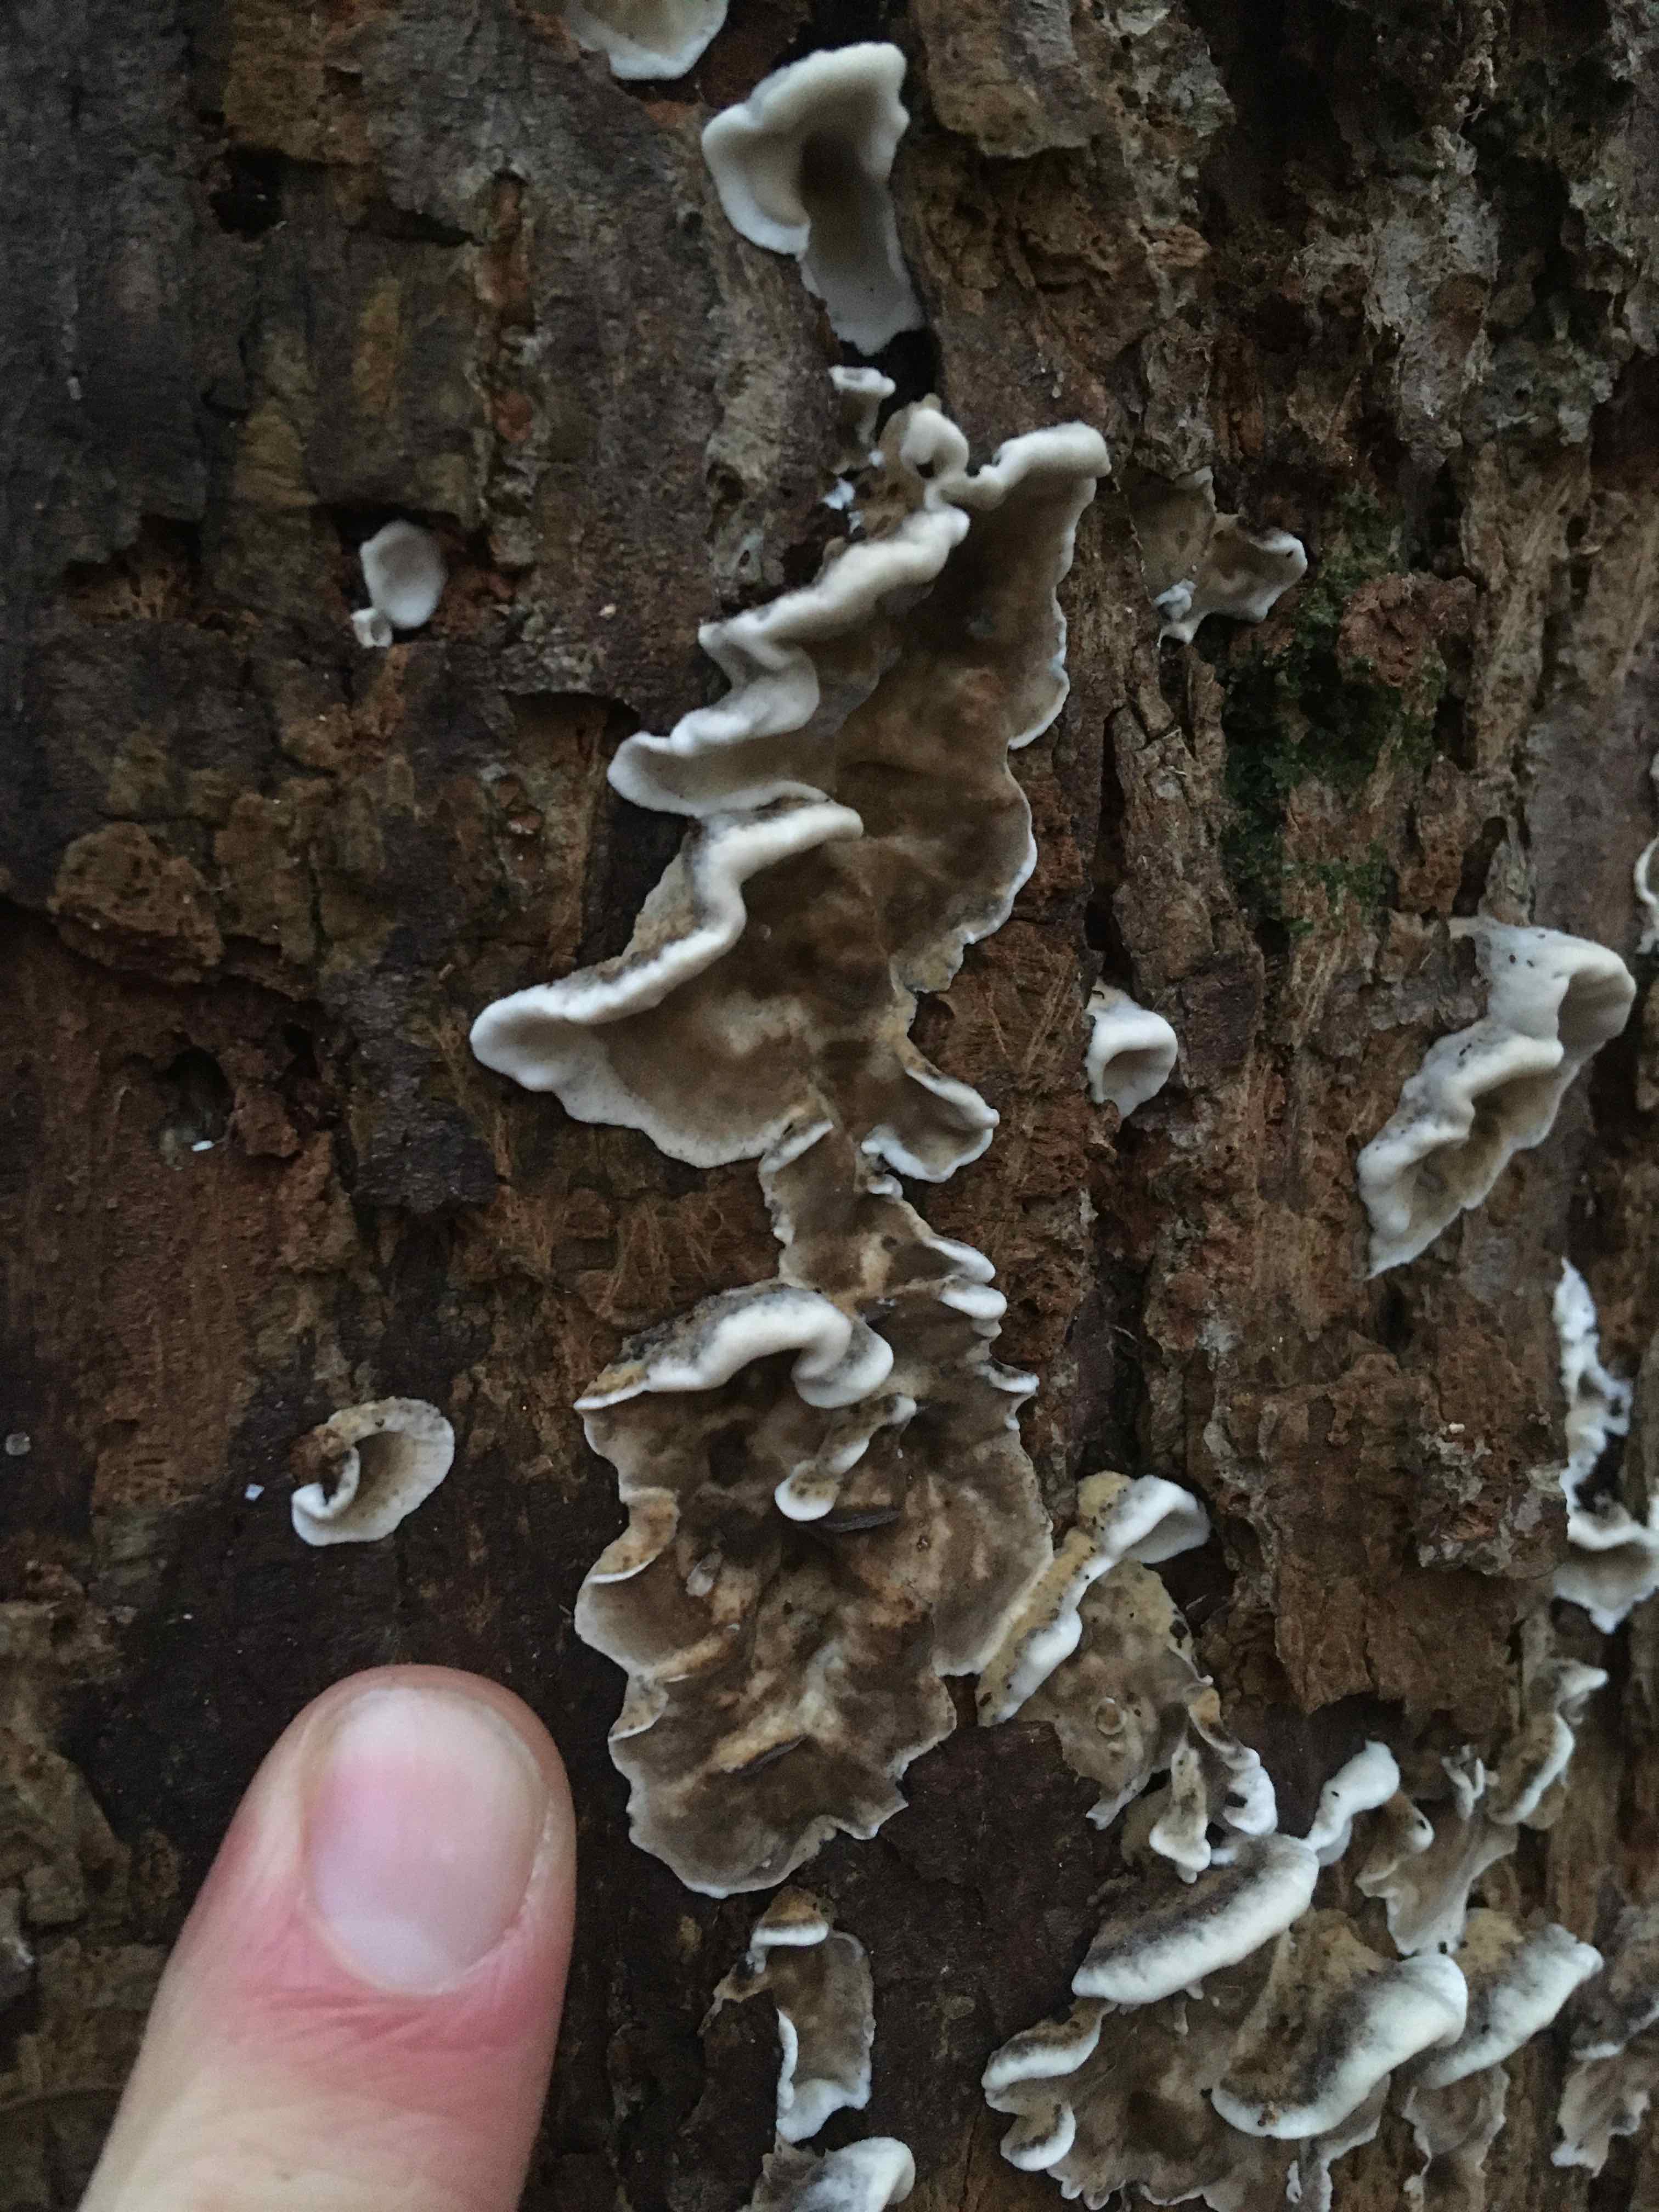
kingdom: Fungi
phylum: Basidiomycota
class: Agaricomycetes
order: Polyporales
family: Phanerochaetaceae
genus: Bjerkandera
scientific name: Bjerkandera adusta
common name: sveden sodporesvamp
